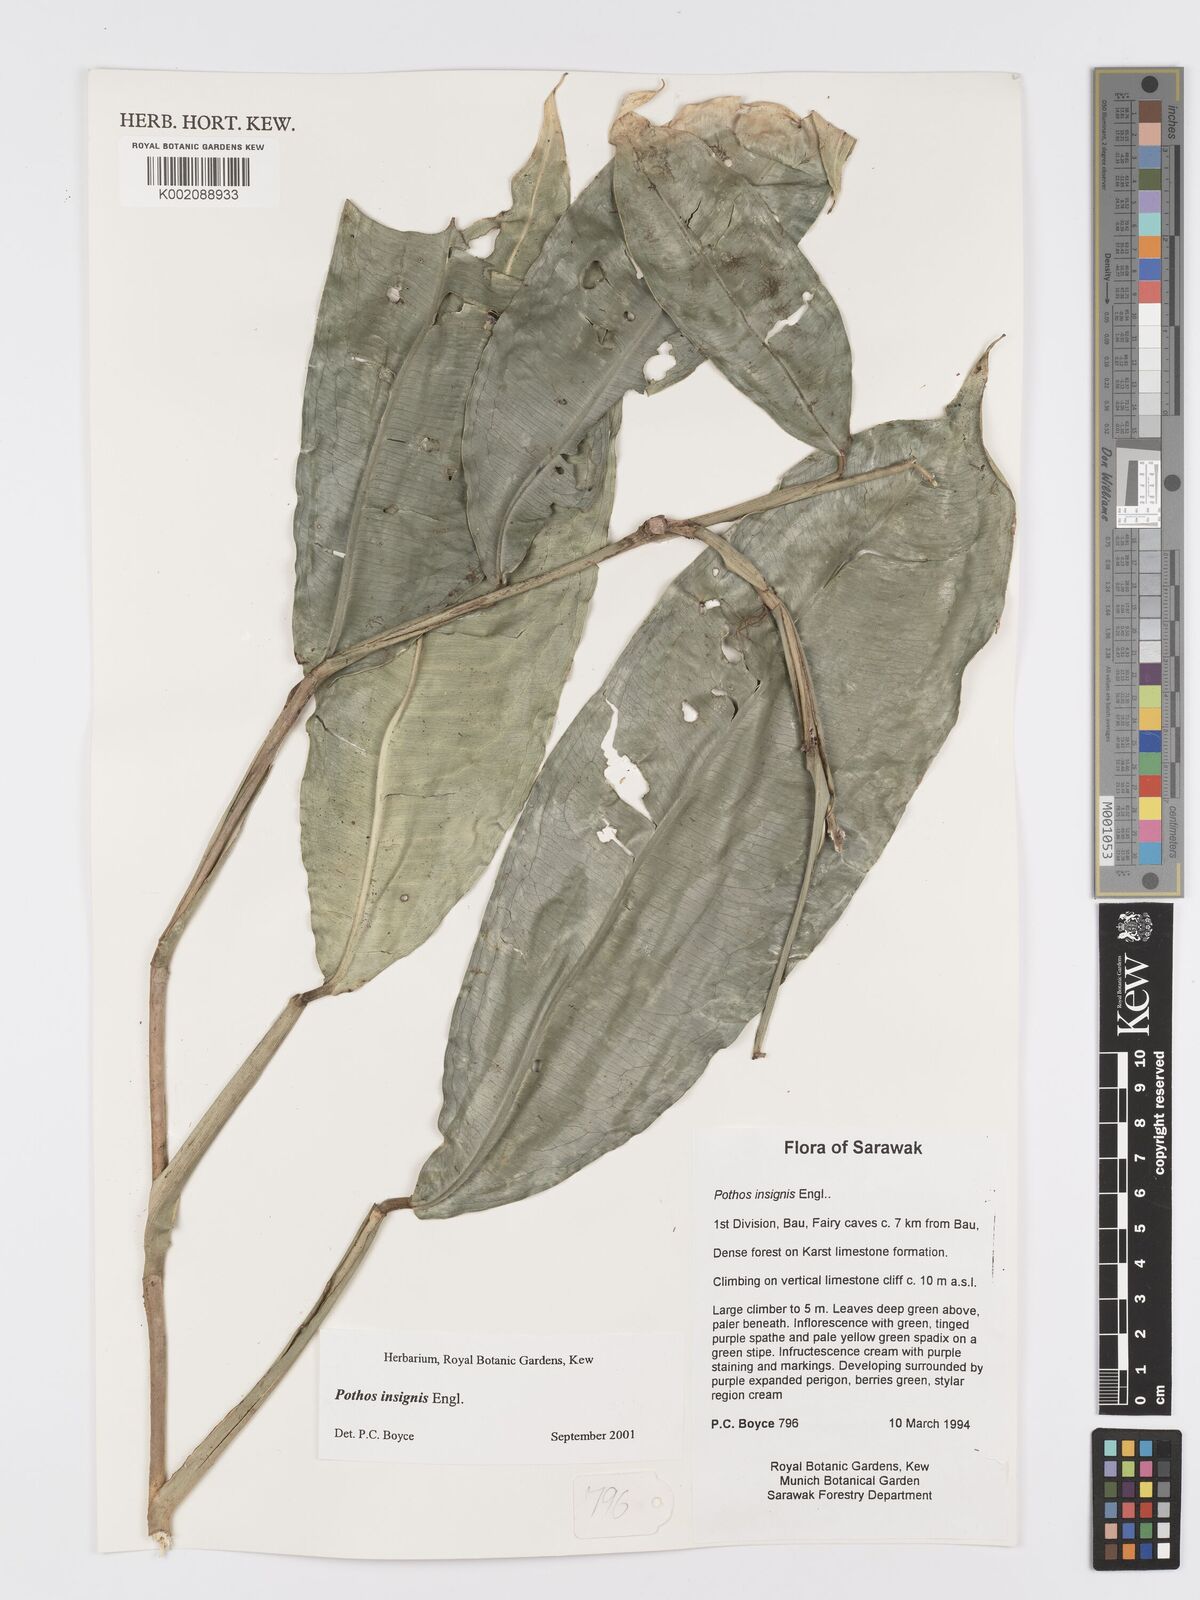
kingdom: Plantae
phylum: Tracheophyta
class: Liliopsida
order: Alismatales
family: Araceae
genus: Pothos
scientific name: Pothos insignis
